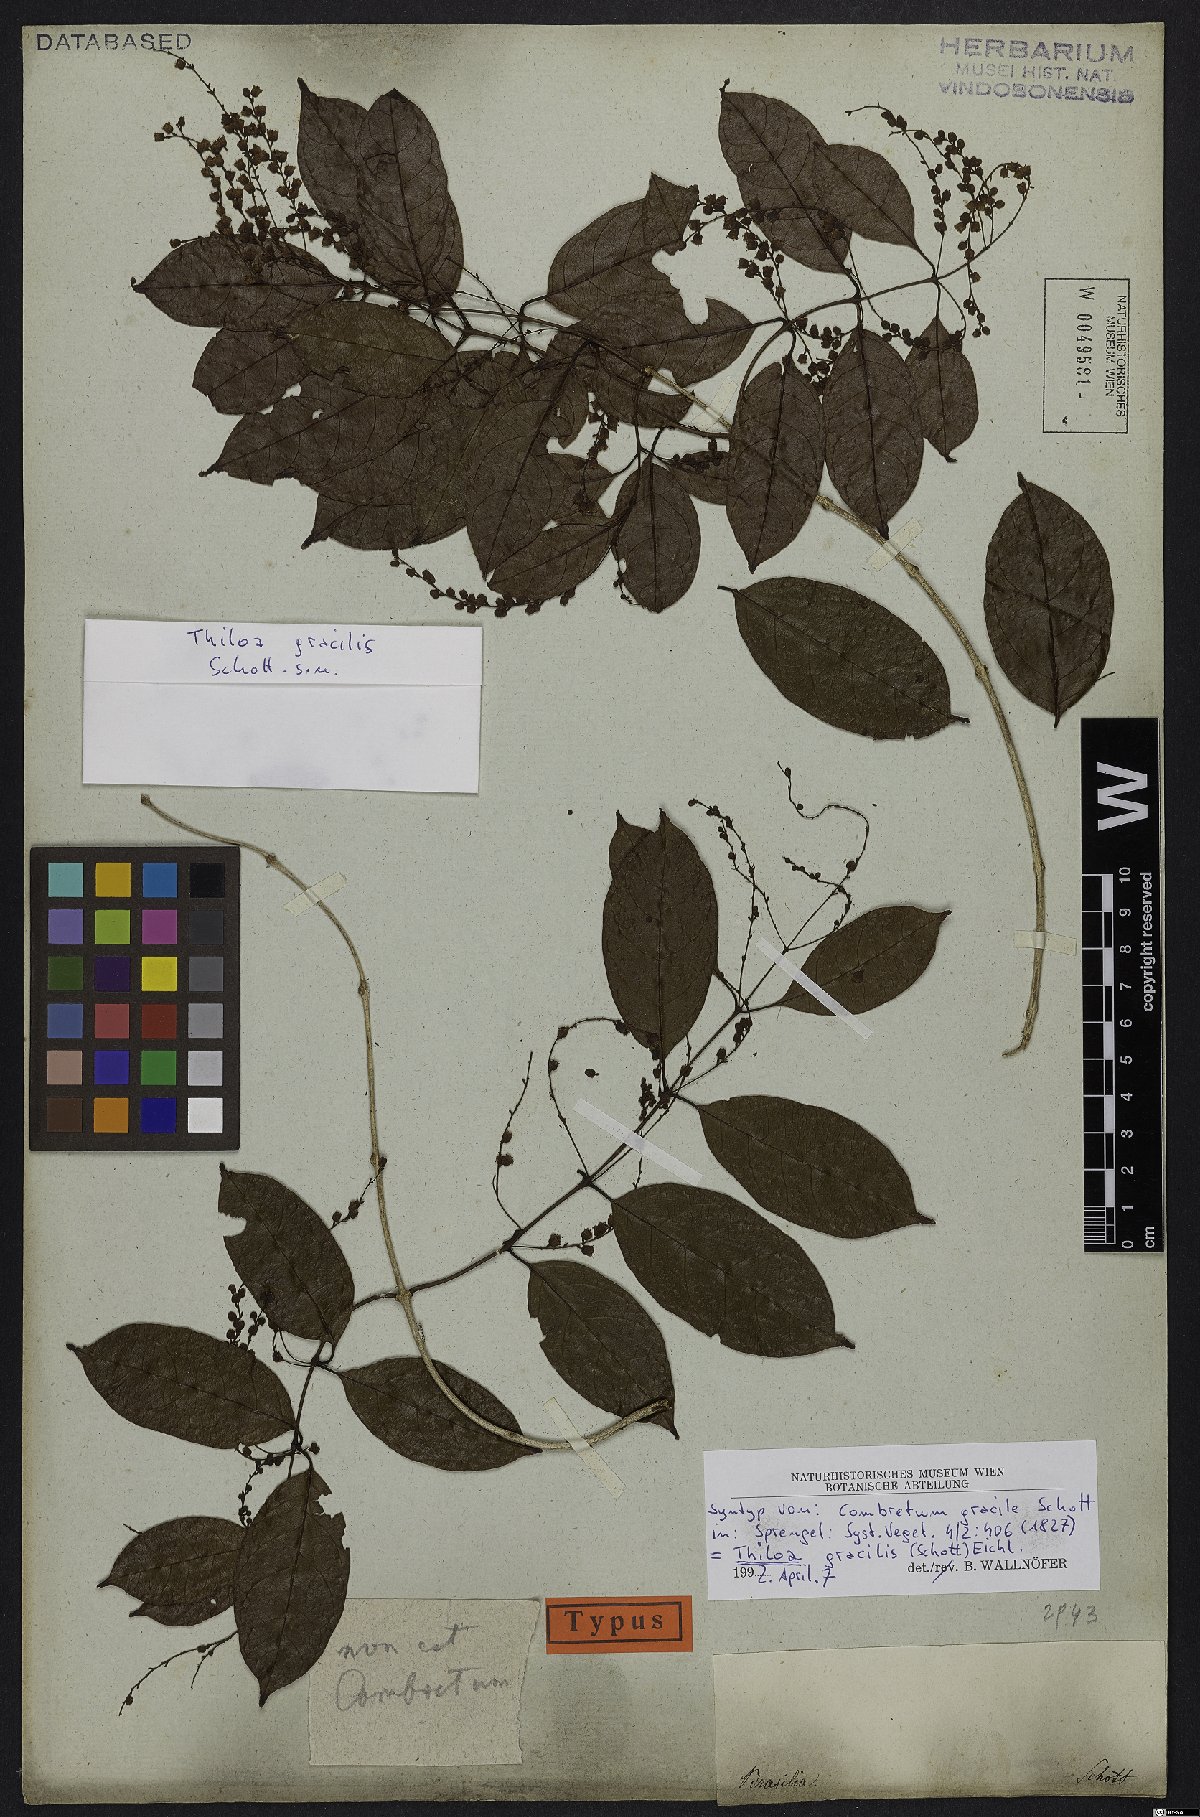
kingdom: Plantae
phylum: Tracheophyta
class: Magnoliopsida
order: Myrtales
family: Combretaceae
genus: Combretum
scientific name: Combretum gracile
